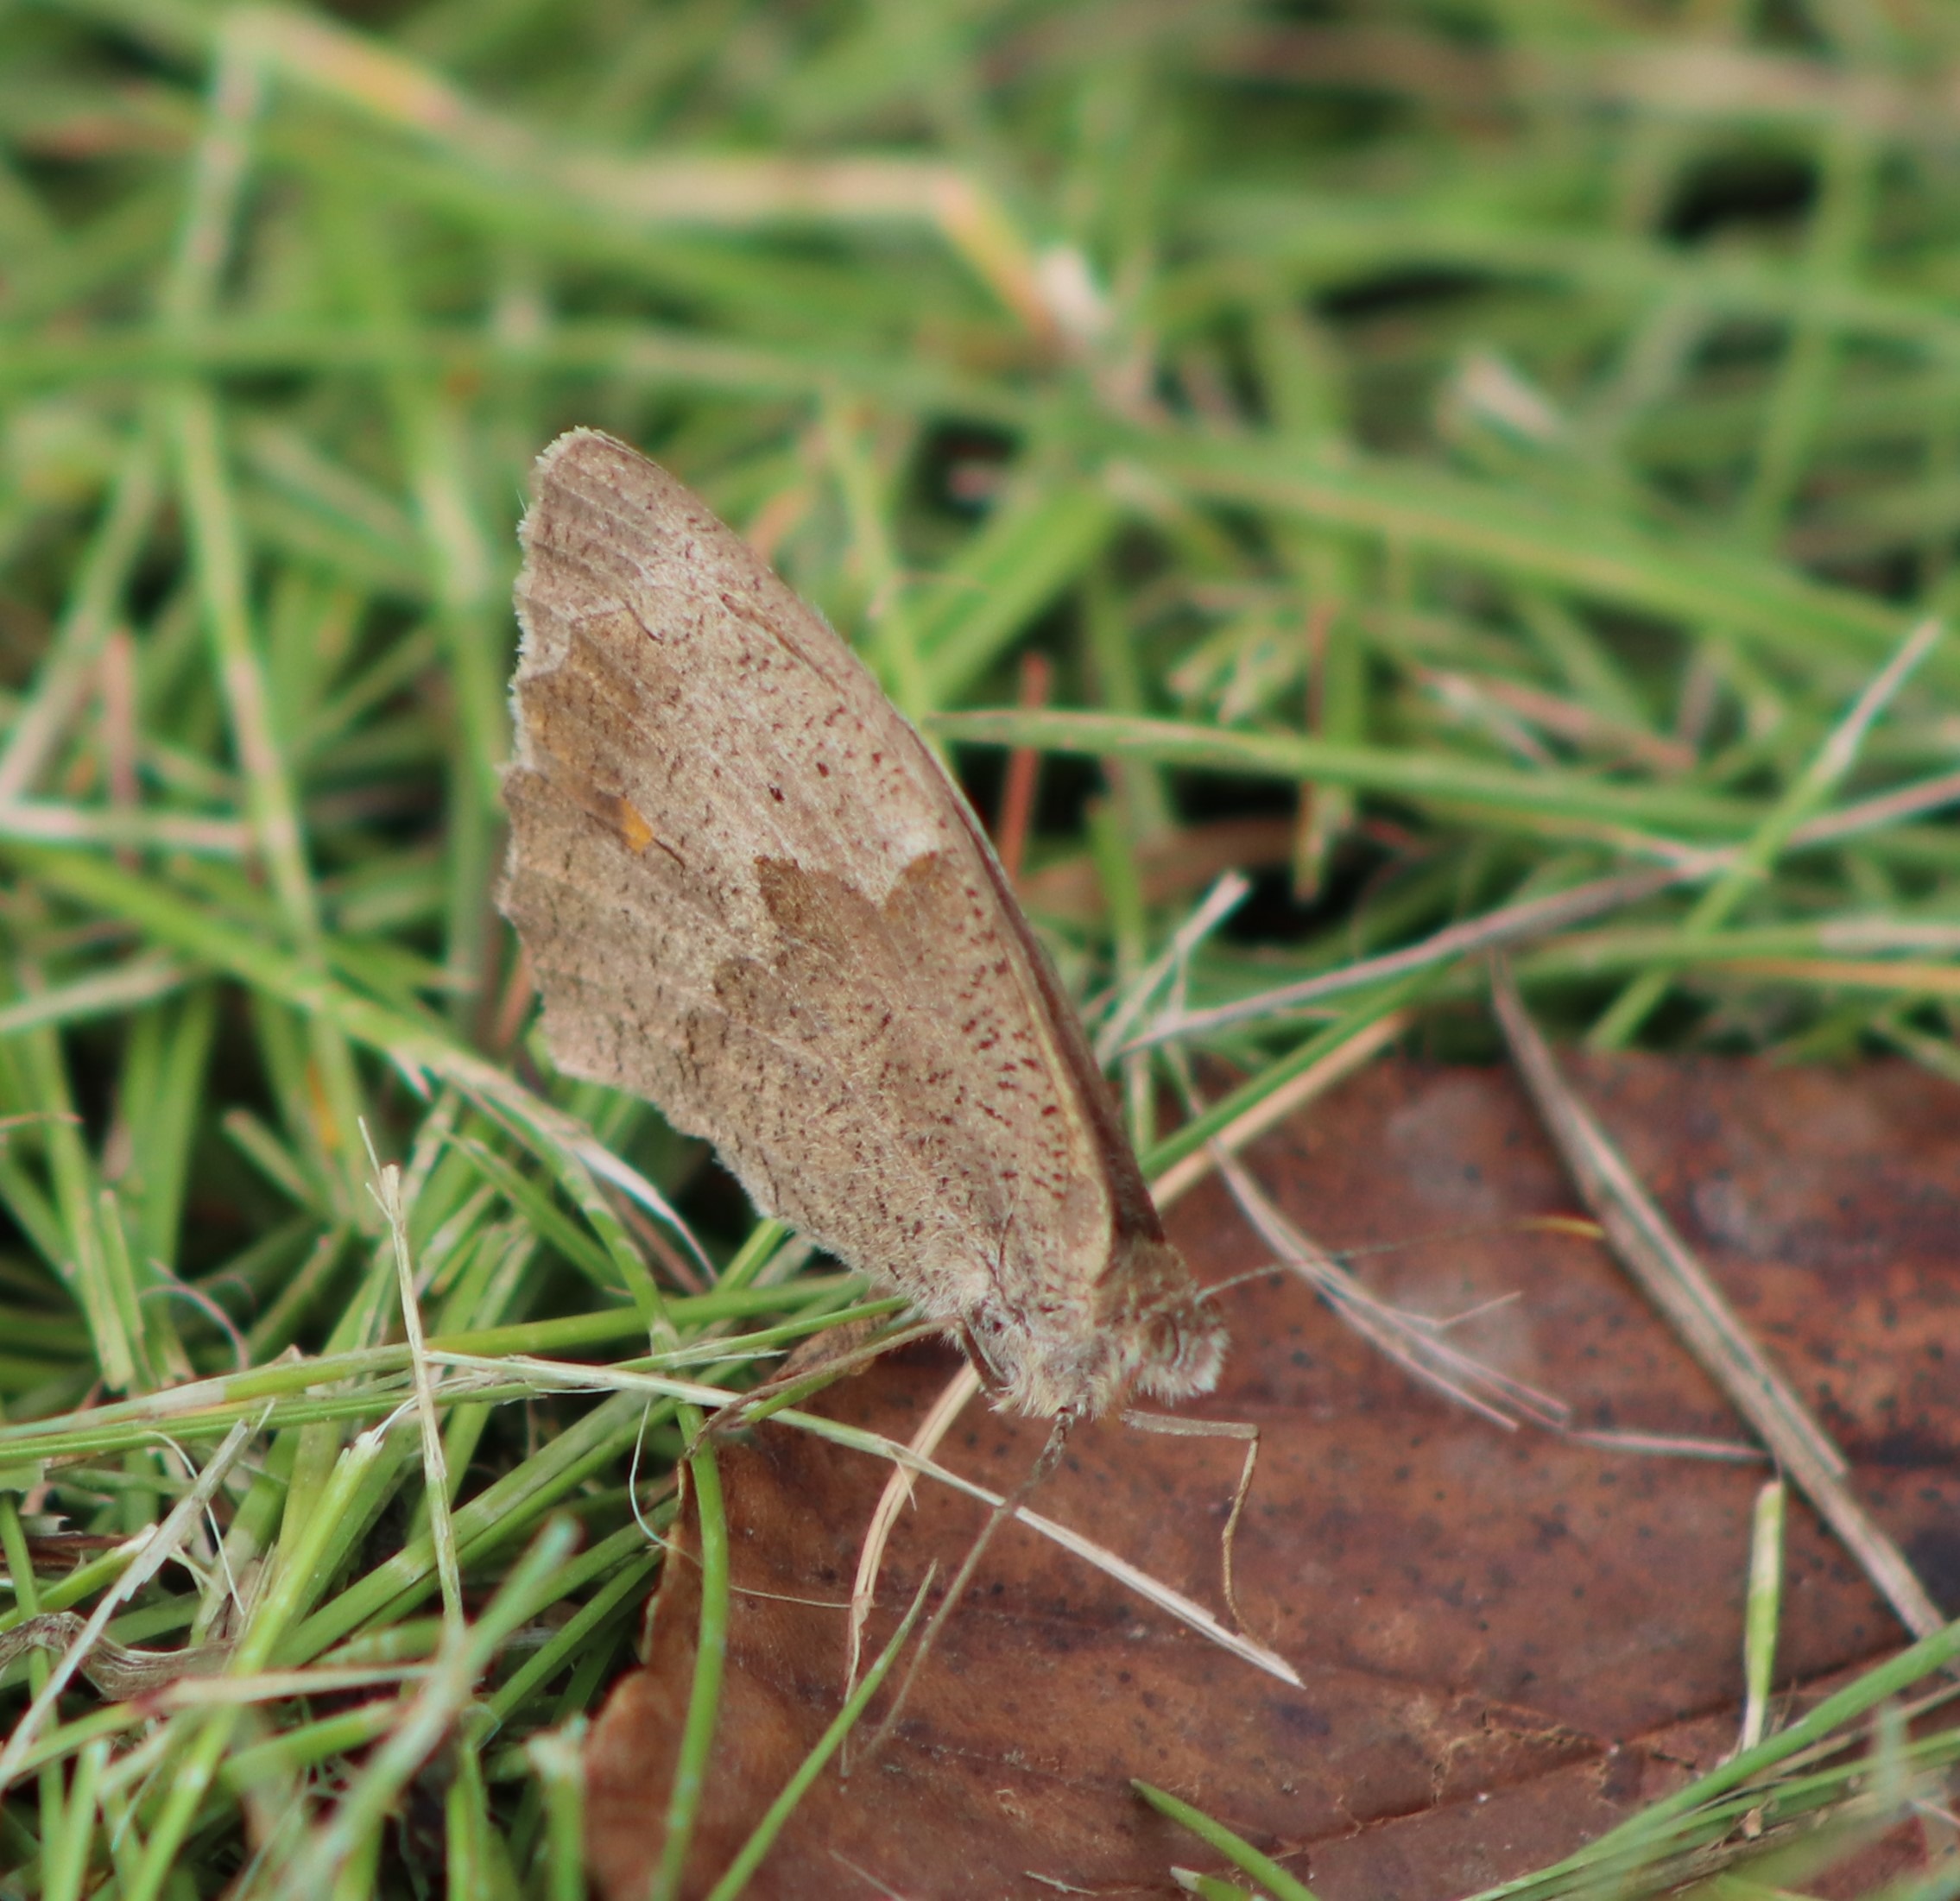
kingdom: Animalia
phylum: Arthropoda
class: Insecta
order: Lepidoptera
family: Nymphalidae
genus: Maniola
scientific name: Maniola jurtina
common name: Græsrandøje
